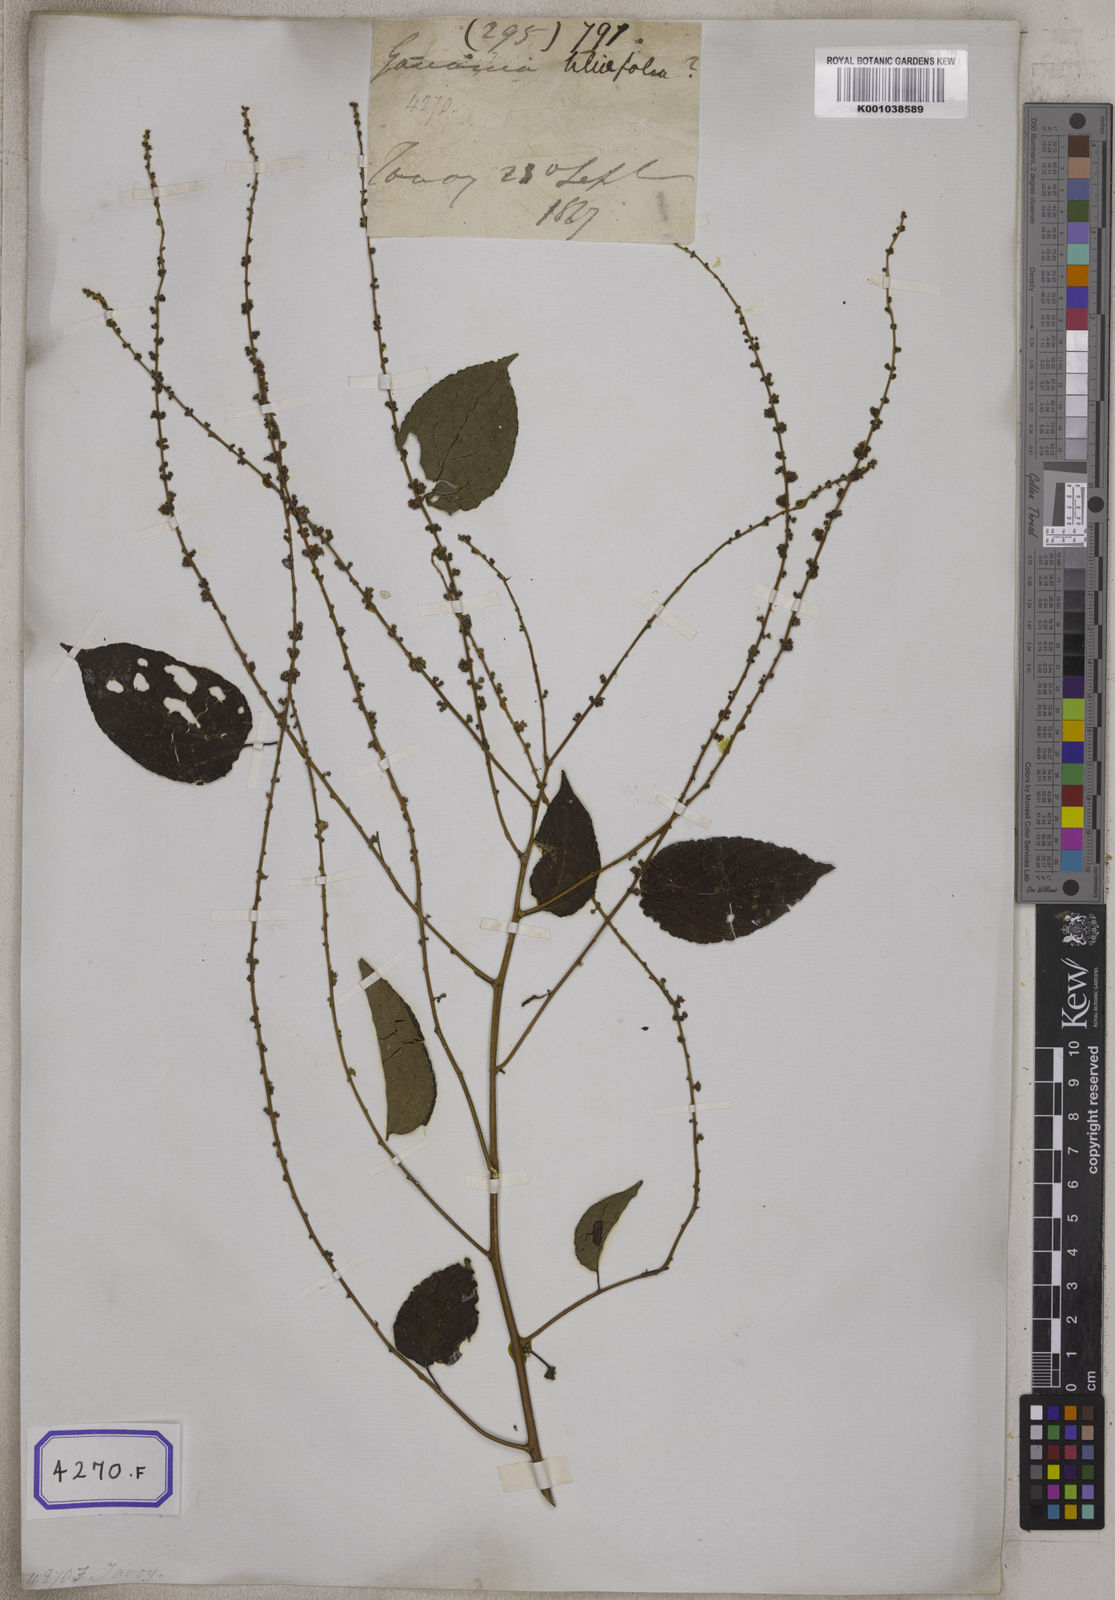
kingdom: Plantae
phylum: Tracheophyta
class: Magnoliopsida
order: Rosales
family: Rhamnaceae
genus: Gouania
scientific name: Gouania leptostachya
